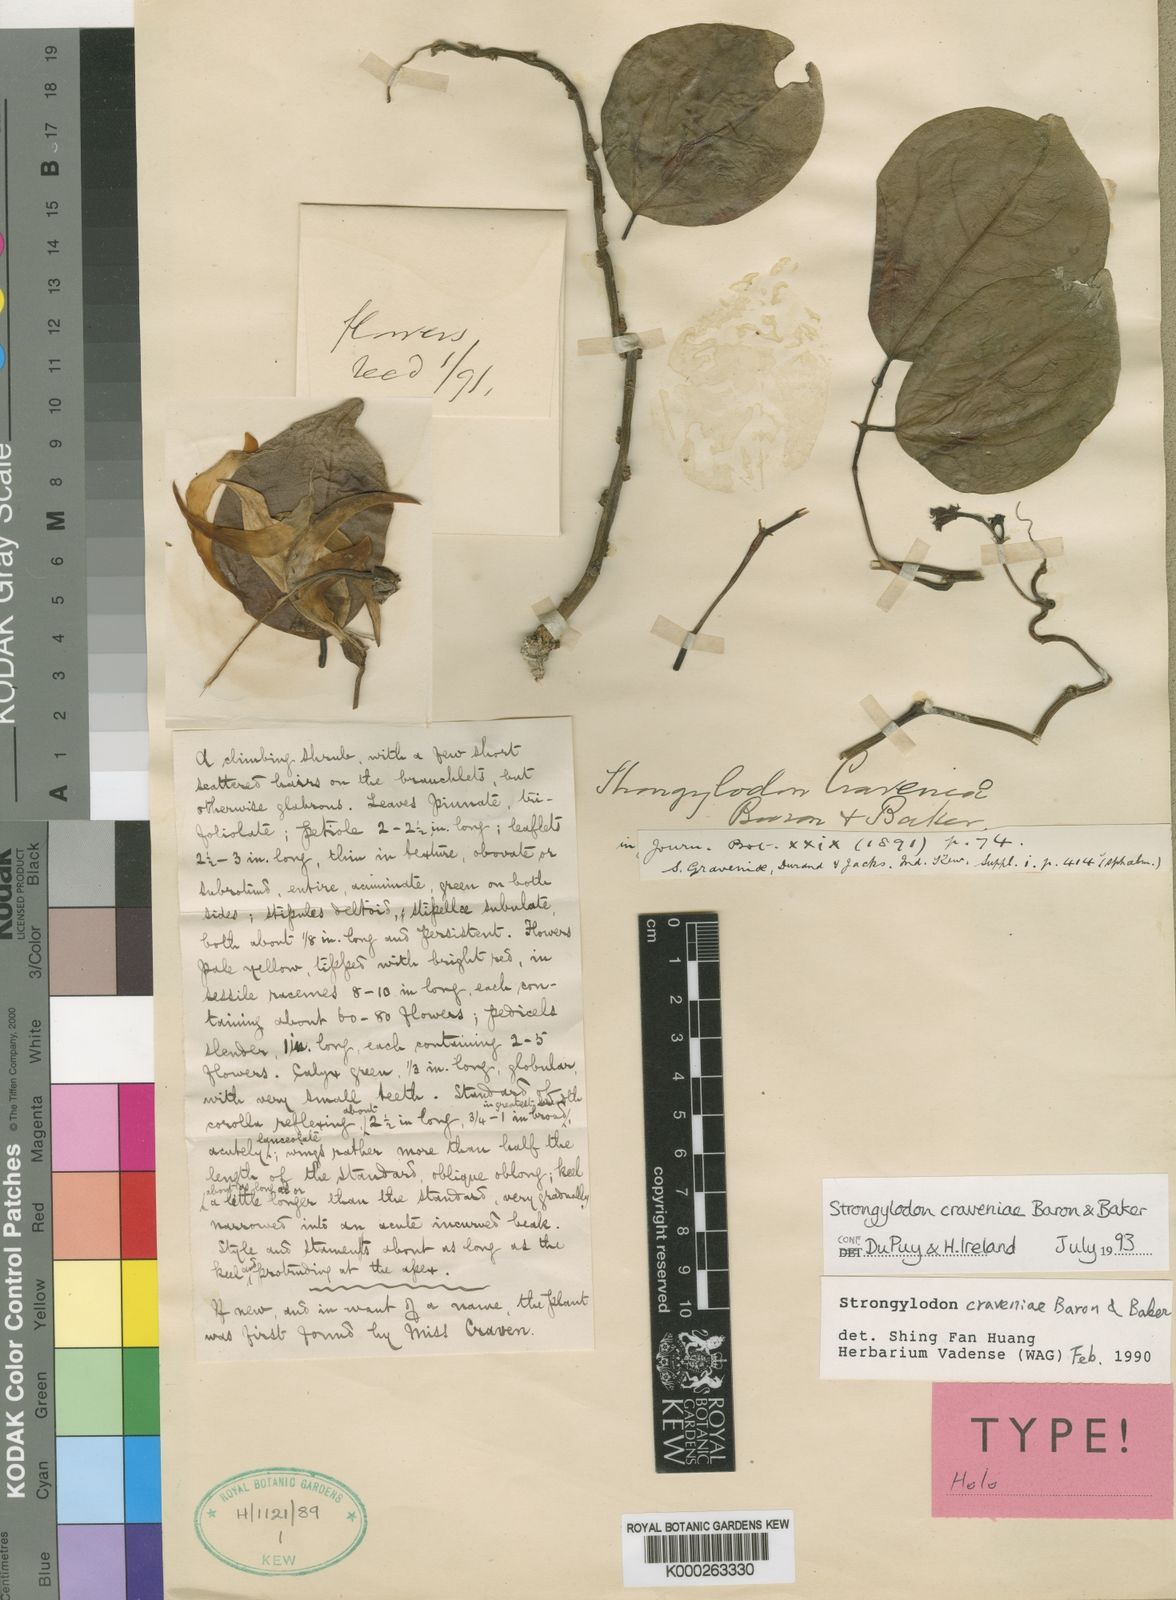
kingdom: Plantae
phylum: Tracheophyta
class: Magnoliopsida
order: Fabales
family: Fabaceae
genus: Strongylodon
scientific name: Strongylodon
